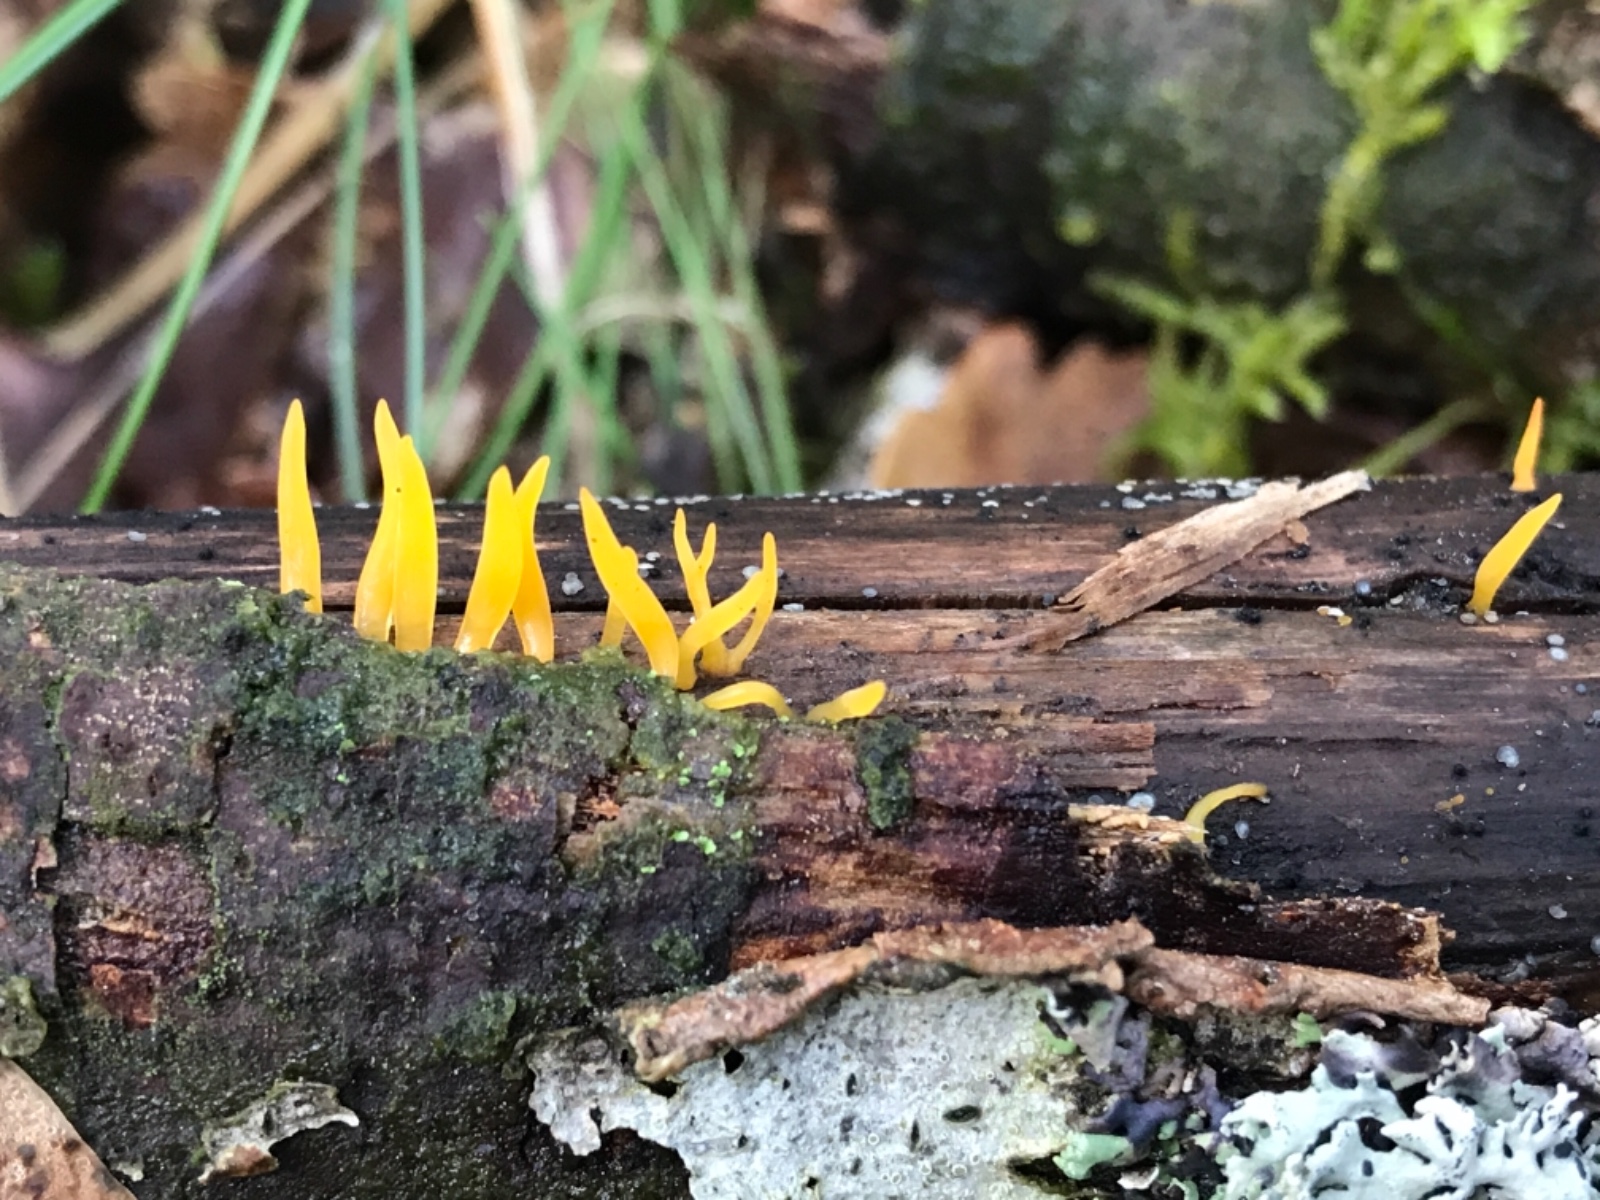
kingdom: Fungi
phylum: Basidiomycota
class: Dacrymycetes
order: Dacrymycetales
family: Dacrymycetaceae
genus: Calocera
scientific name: Calocera cornea
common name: liden guldgaffel
